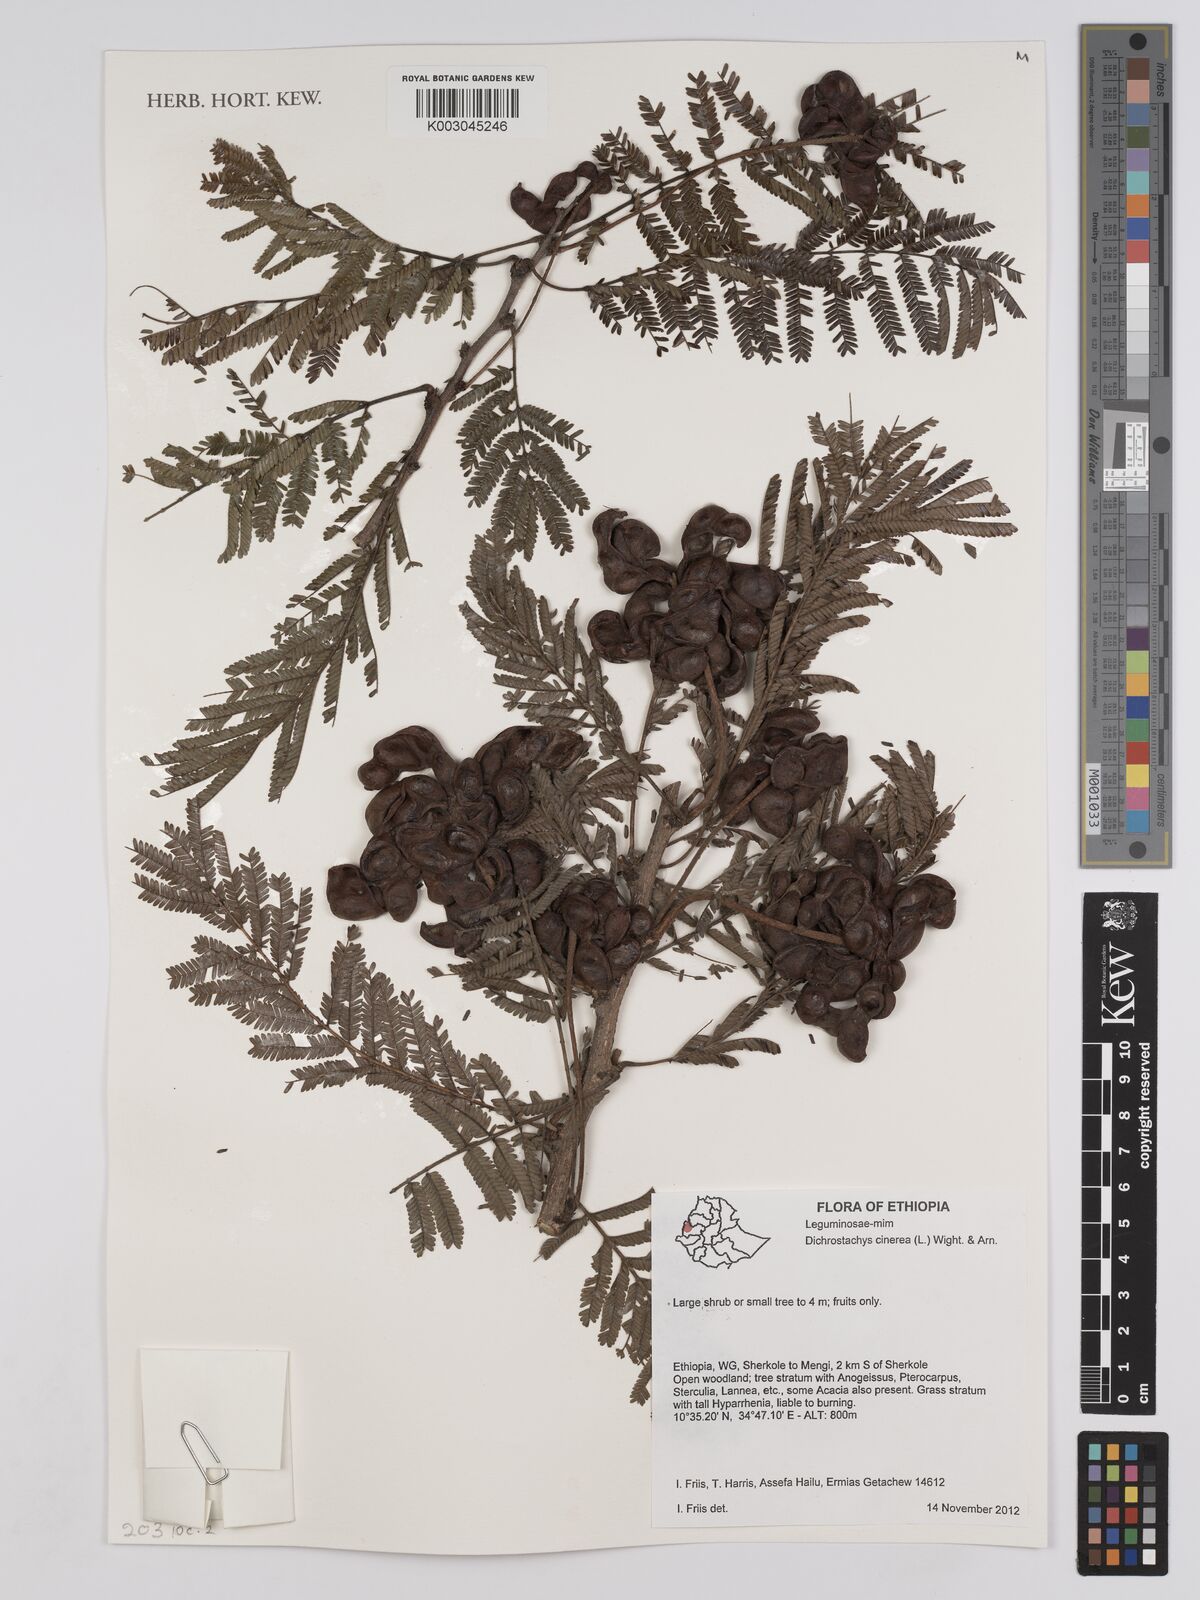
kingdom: Plantae
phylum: Tracheophyta
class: Magnoliopsida
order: Fabales
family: Fabaceae
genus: Dichrostachys
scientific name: Dichrostachys cinerea
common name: Sicklebush
